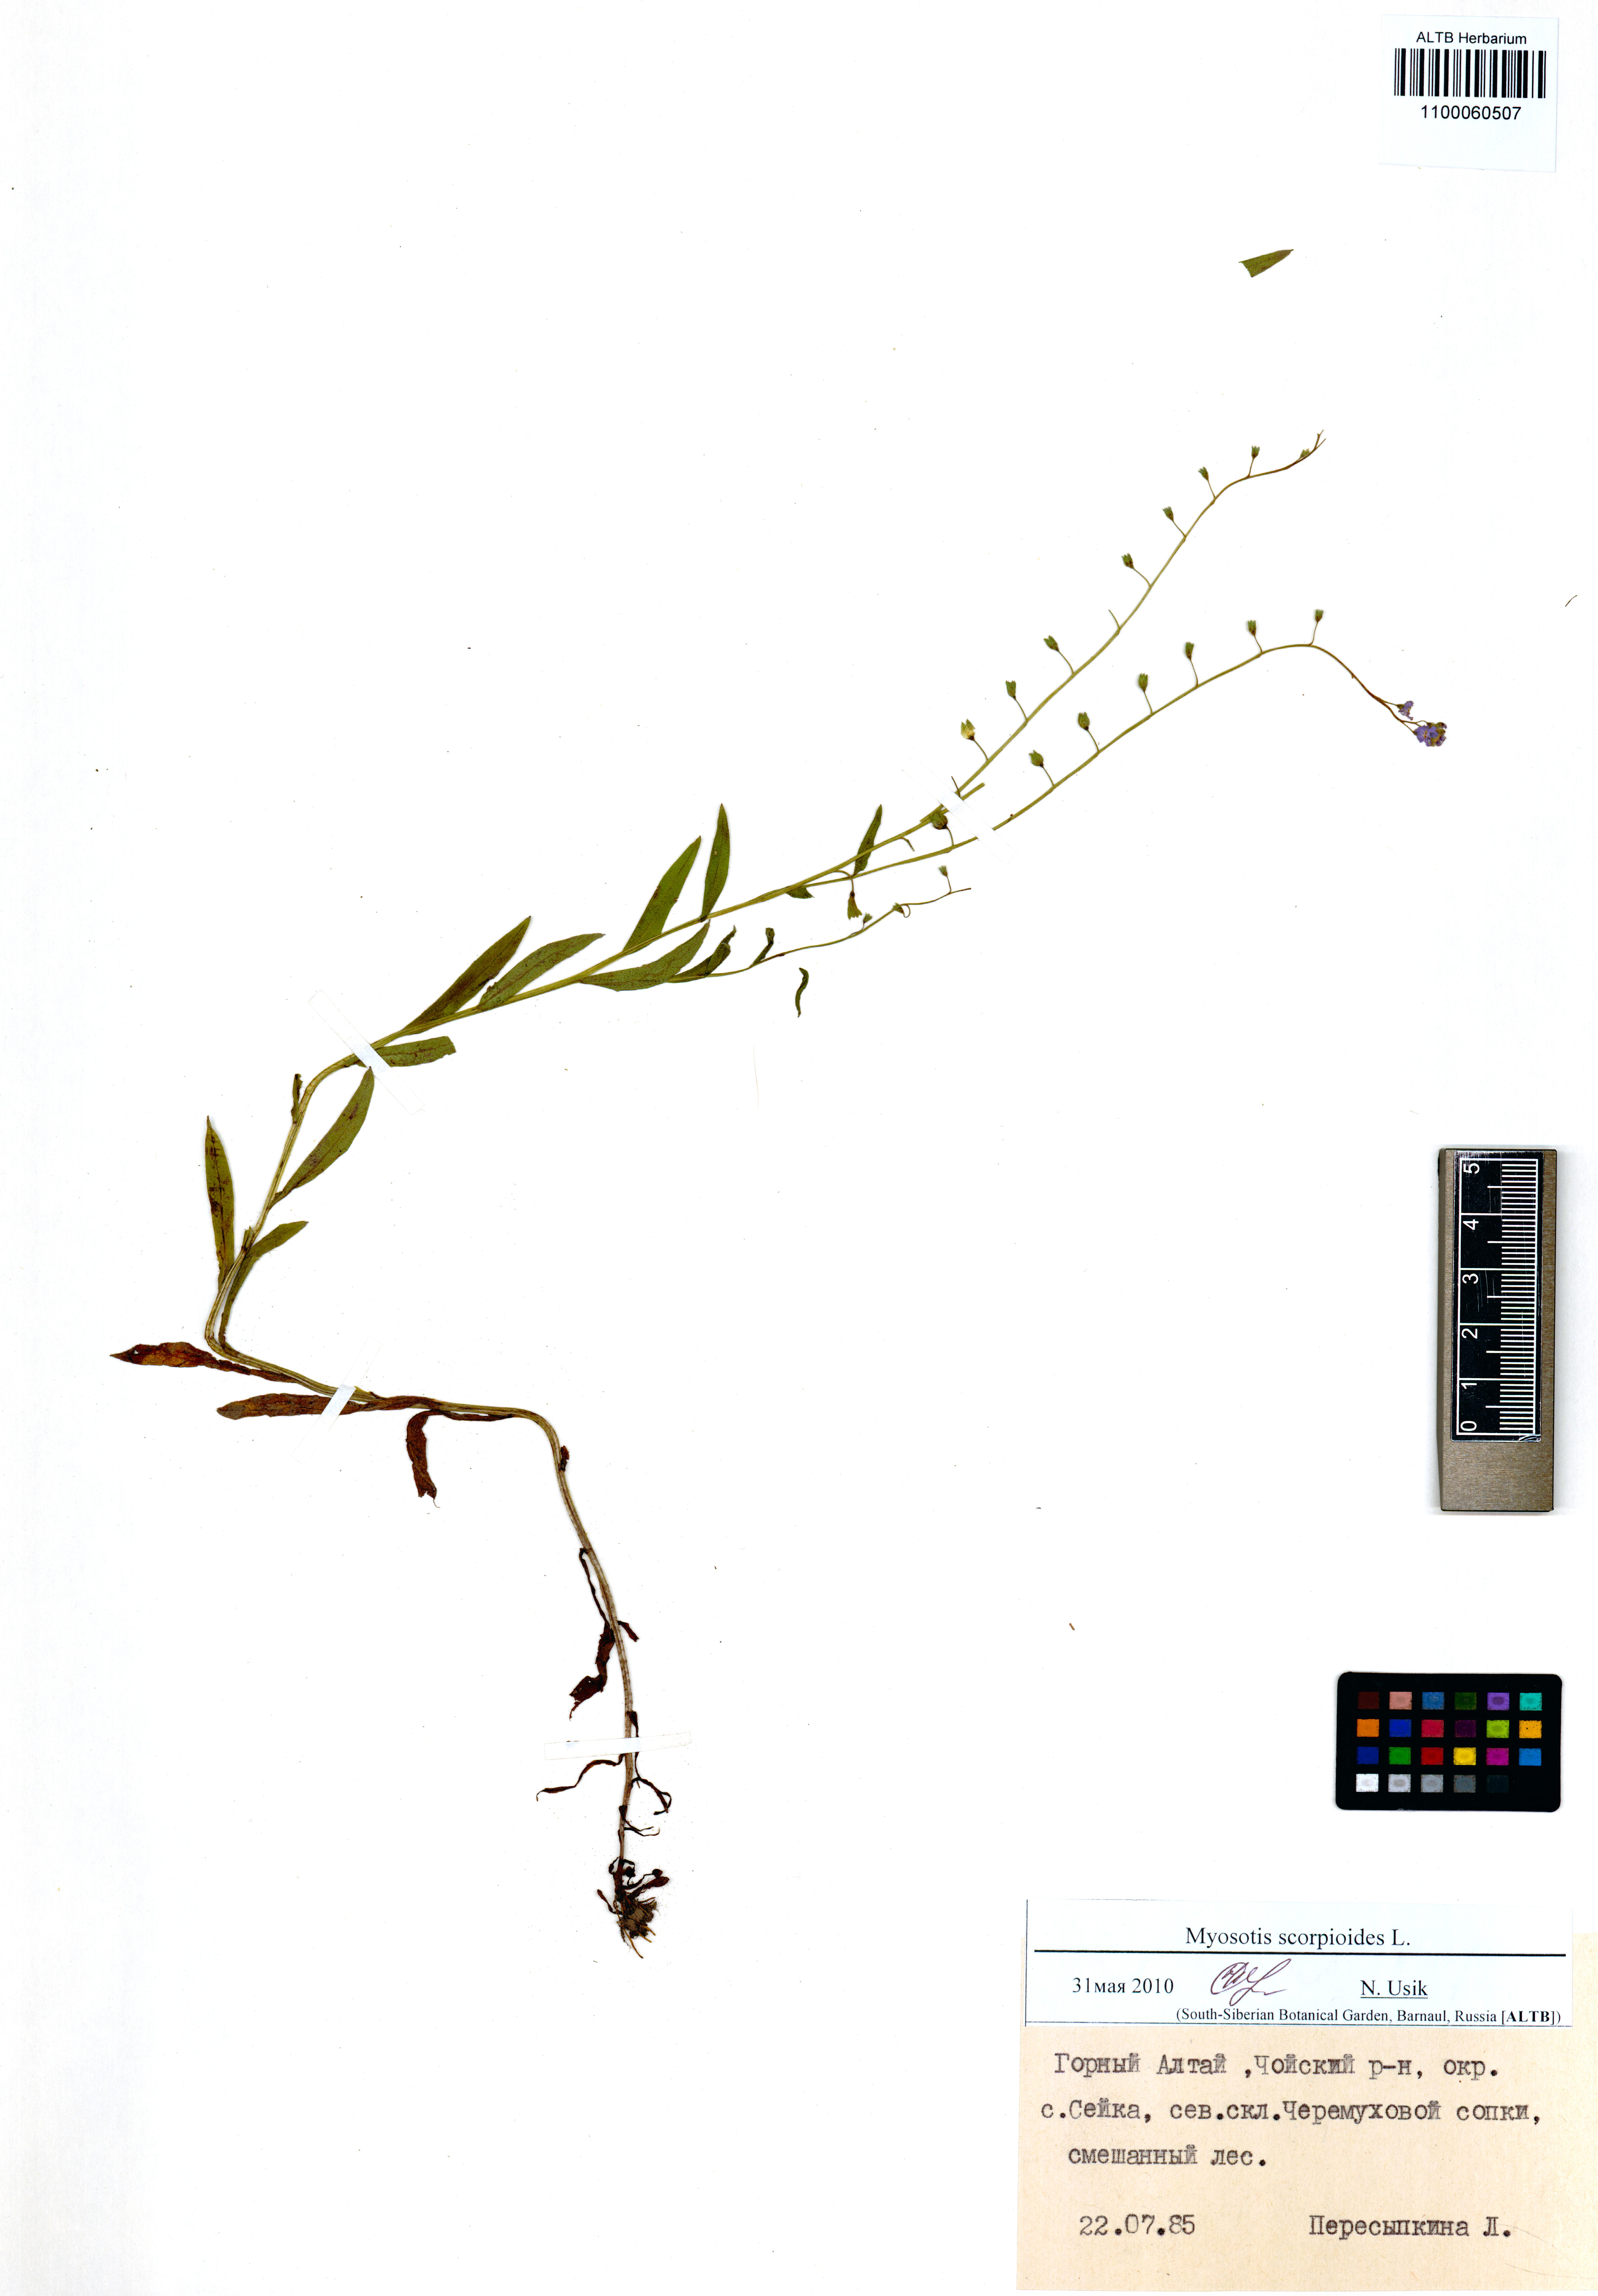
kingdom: Plantae
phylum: Tracheophyta
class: Magnoliopsida
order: Boraginales
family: Boraginaceae
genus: Myosotis
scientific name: Myosotis scorpioides
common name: Water forget-me-not
